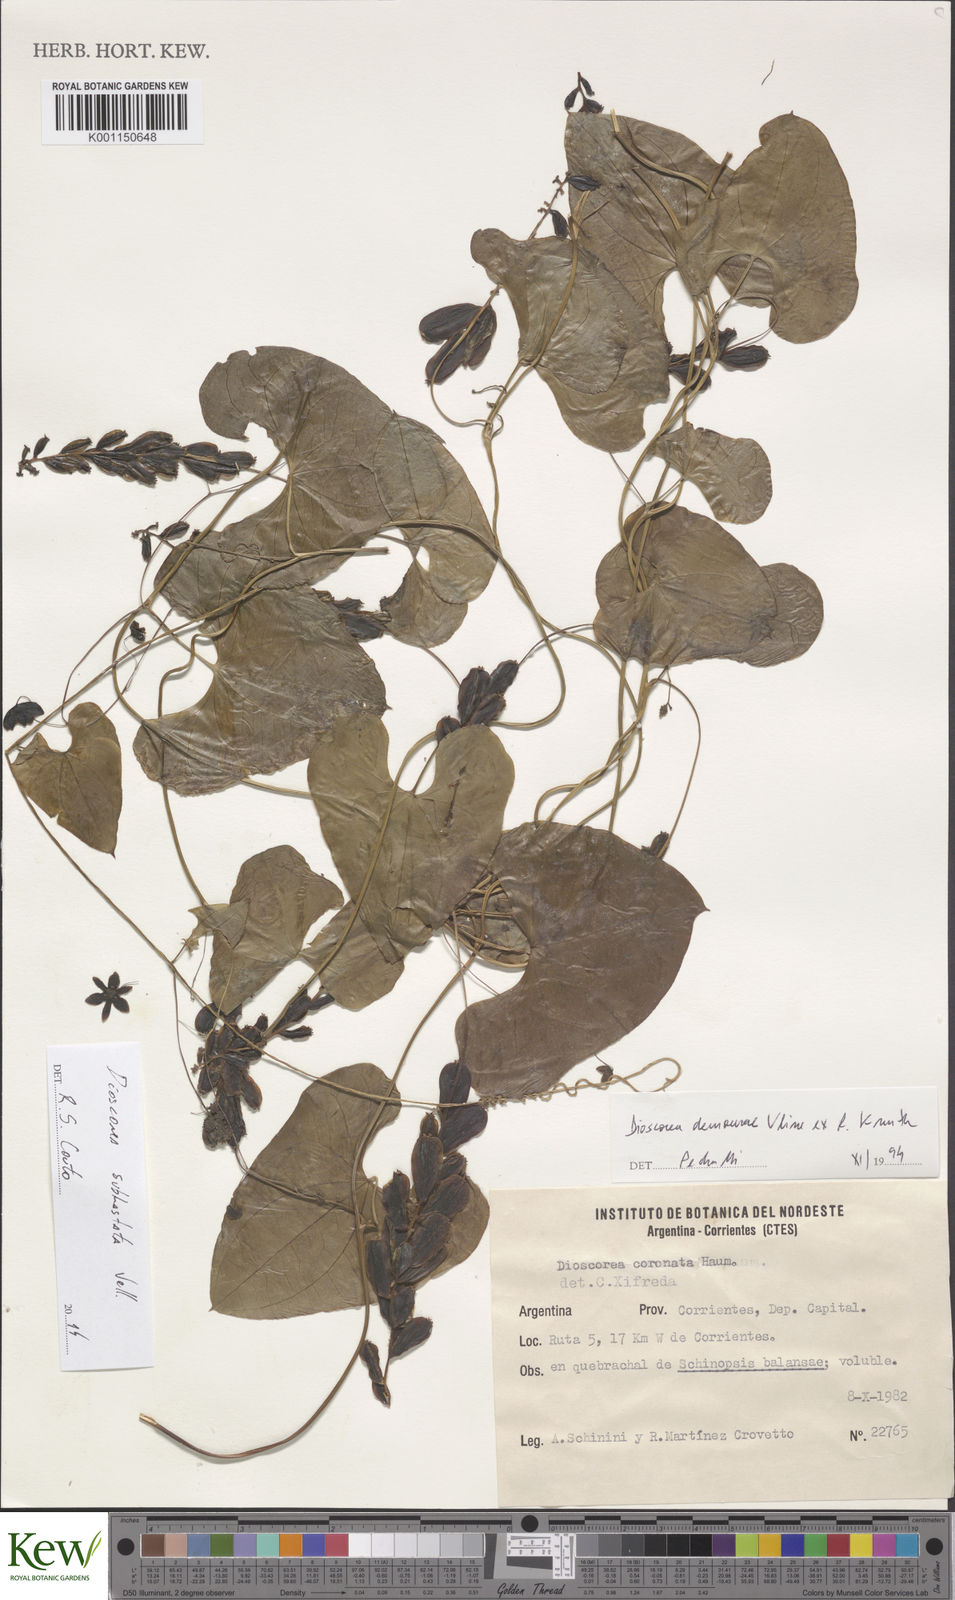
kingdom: Plantae
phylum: Tracheophyta
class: Liliopsida
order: Dioscoreales
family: Dioscoreaceae
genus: Dioscorea
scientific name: Dioscorea coronata
